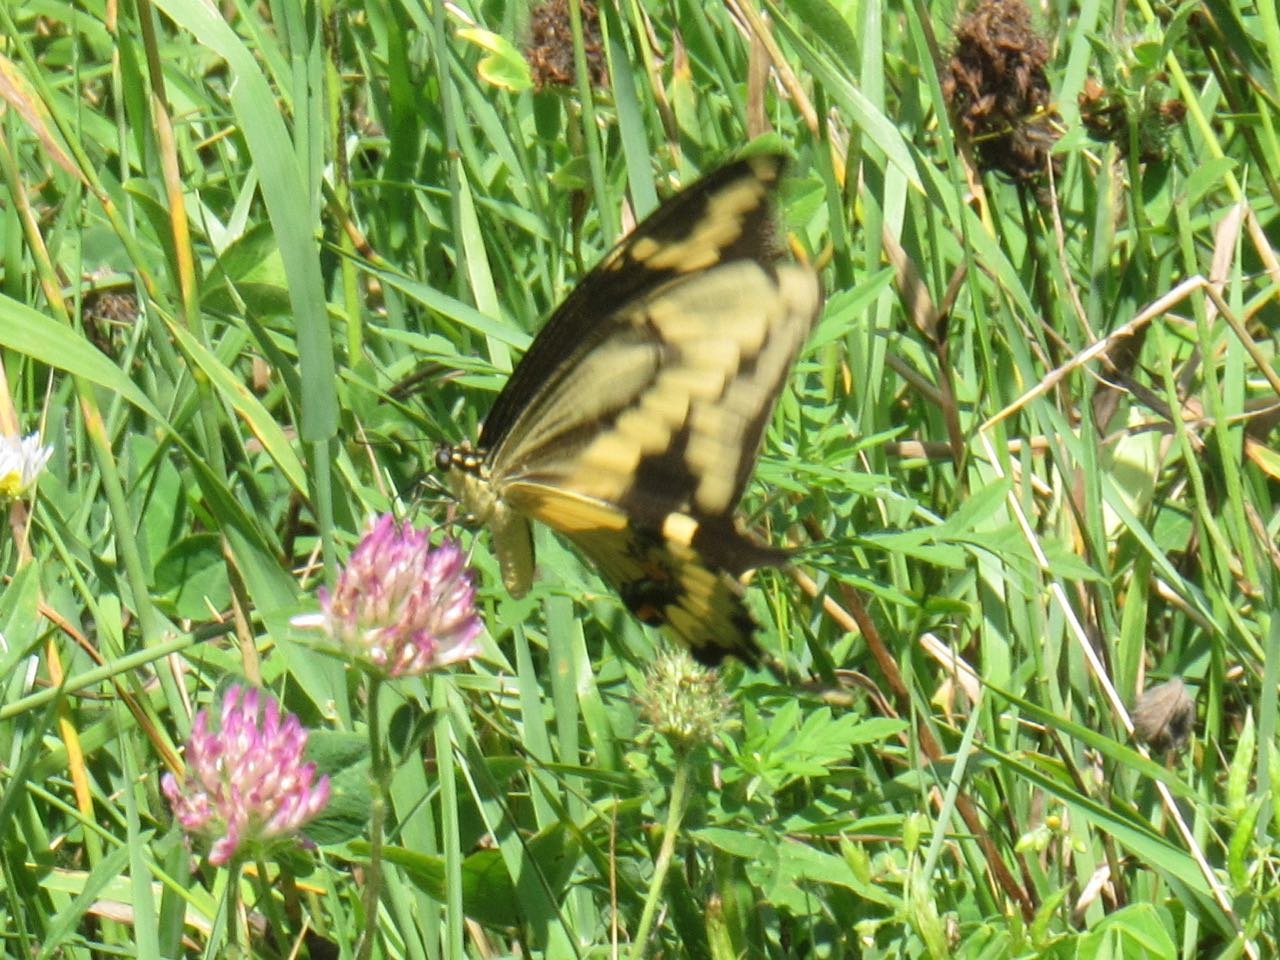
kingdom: Animalia
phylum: Arthropoda
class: Insecta
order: Lepidoptera
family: Papilionidae
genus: Papilio
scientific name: Papilio cresphontes
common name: Eastern Giant Swallowtail
